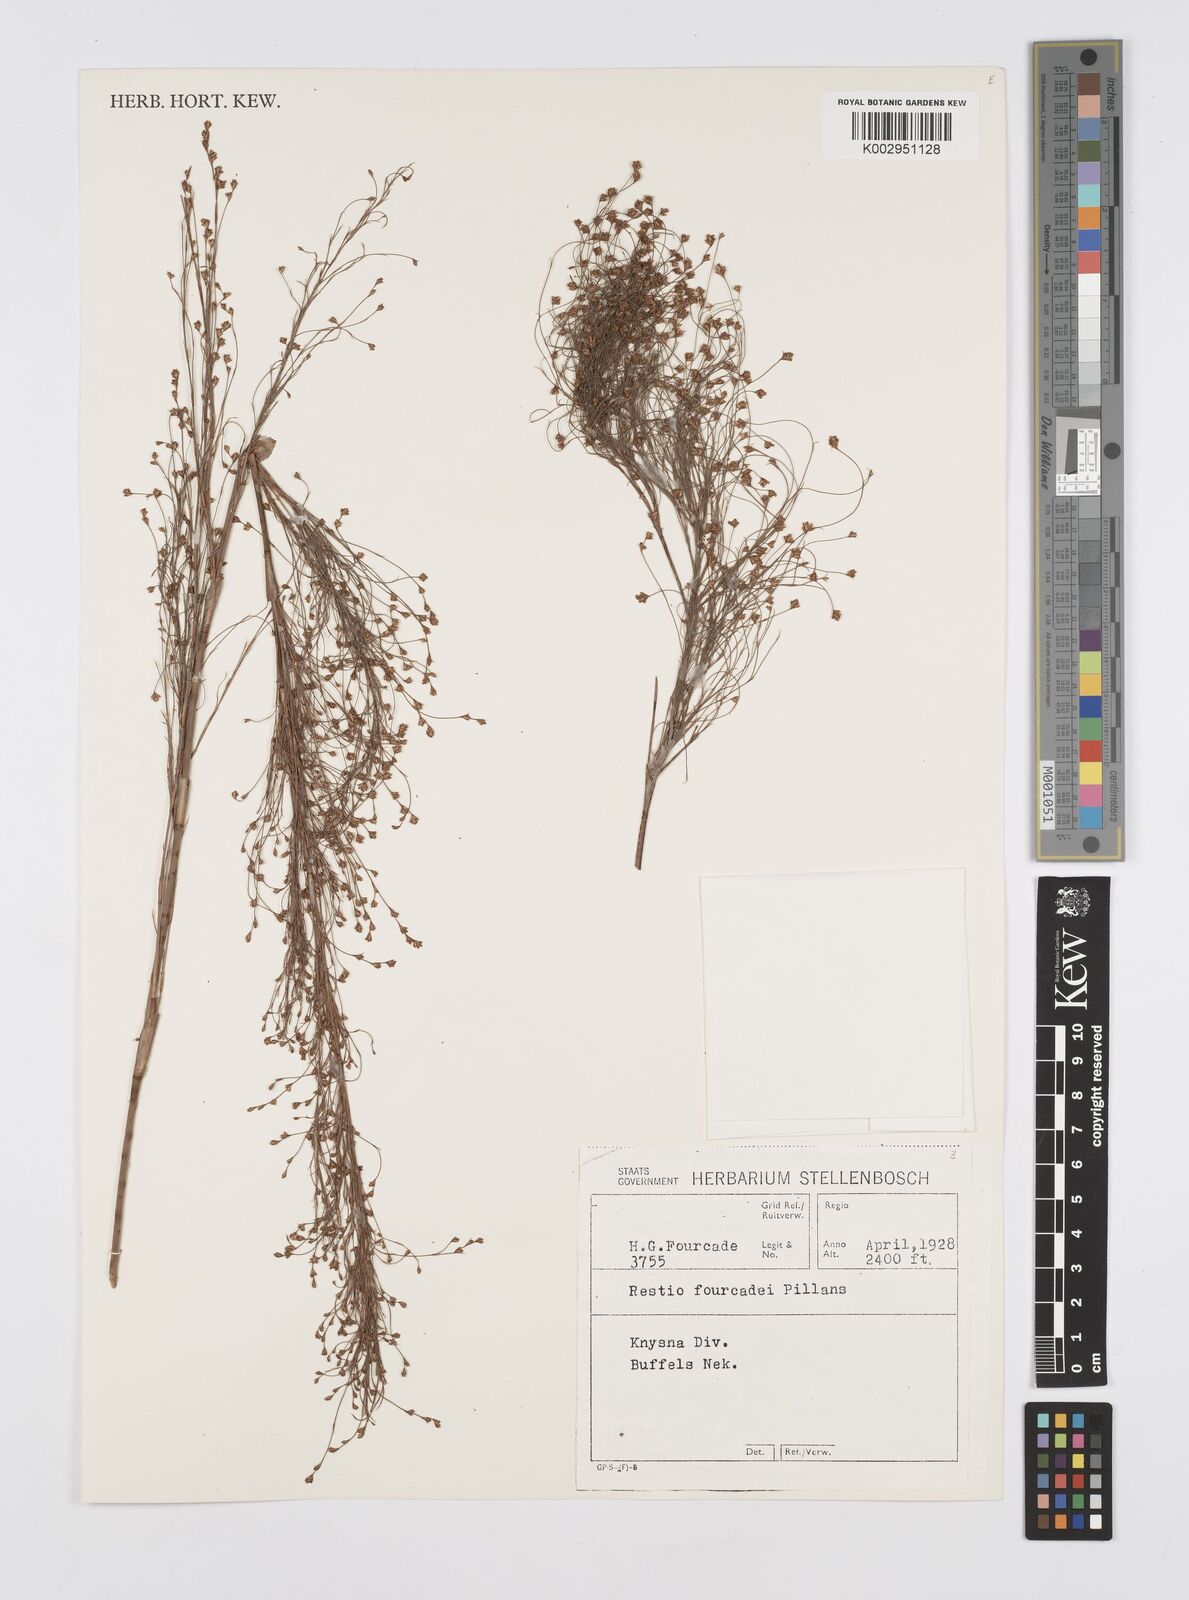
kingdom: Plantae
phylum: Tracheophyta
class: Liliopsida
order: Poales
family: Restionaceae
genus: Restio
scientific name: Restio fourcadei
